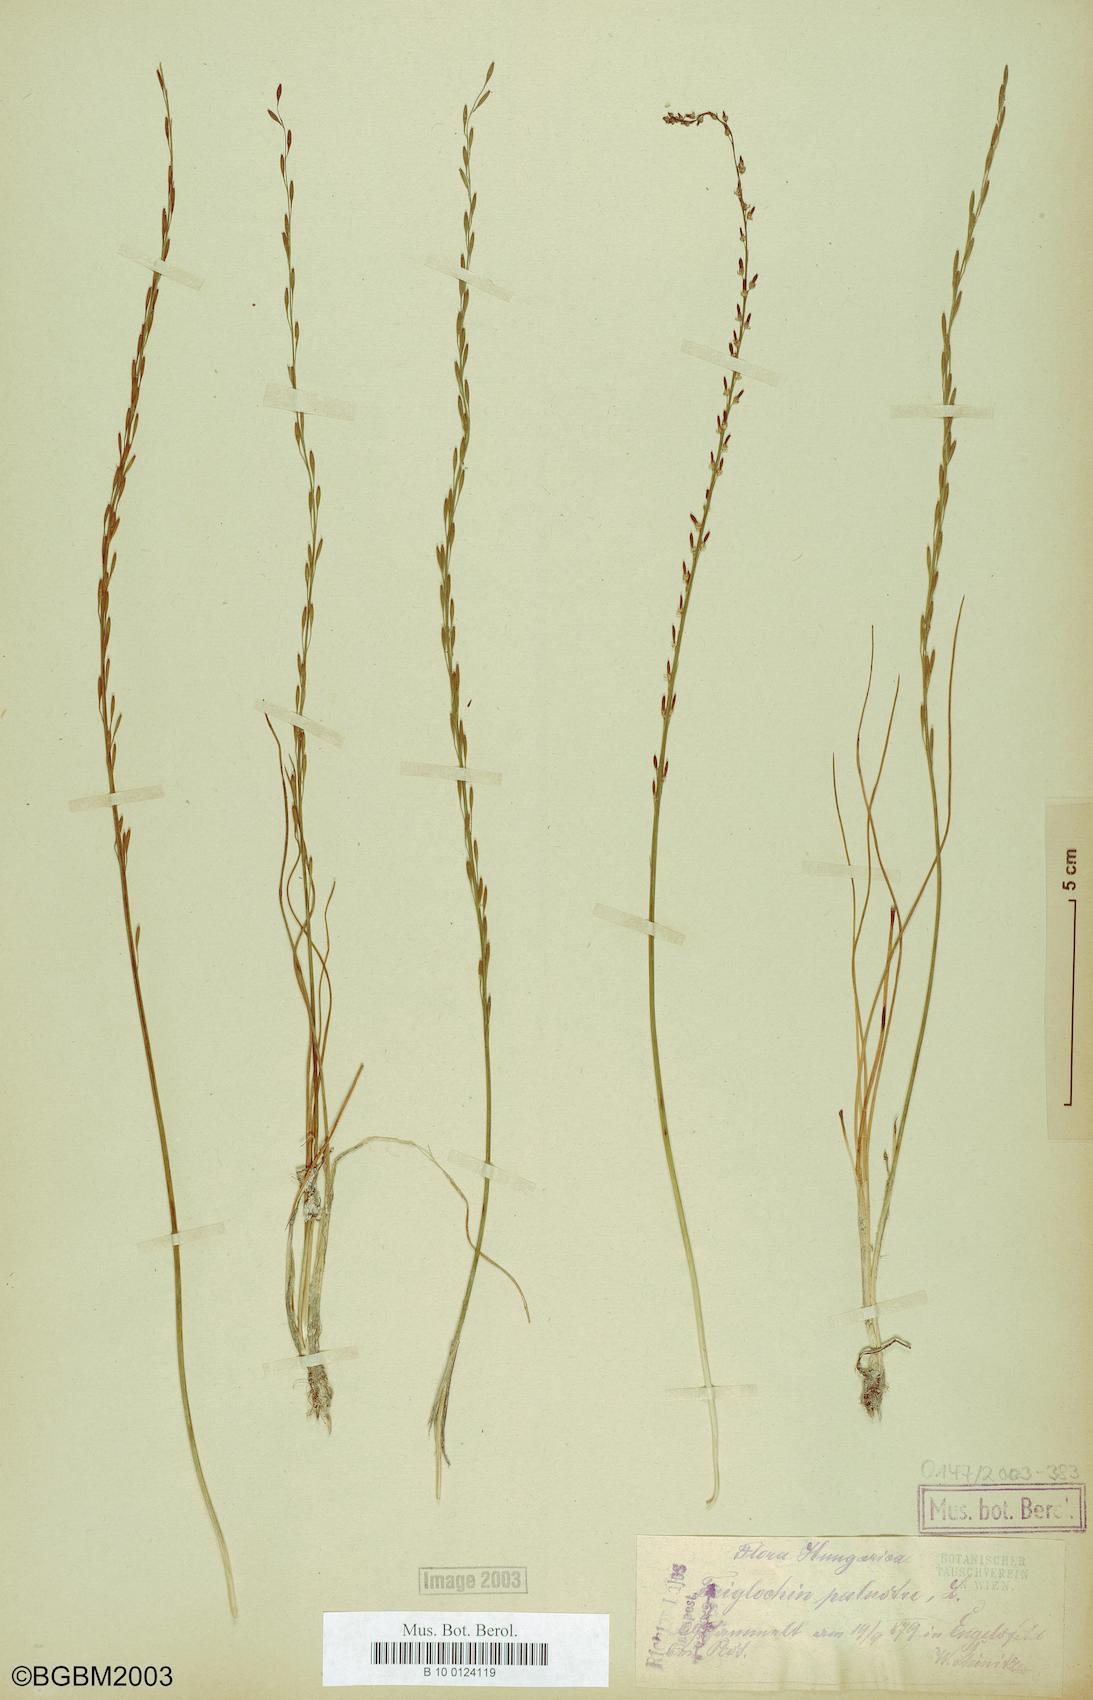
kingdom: Plantae
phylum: Tracheophyta
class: Liliopsida
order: Alismatales
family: Juncaginaceae
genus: Triglochin
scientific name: Triglochin palustris
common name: Marsh arrowgrass
